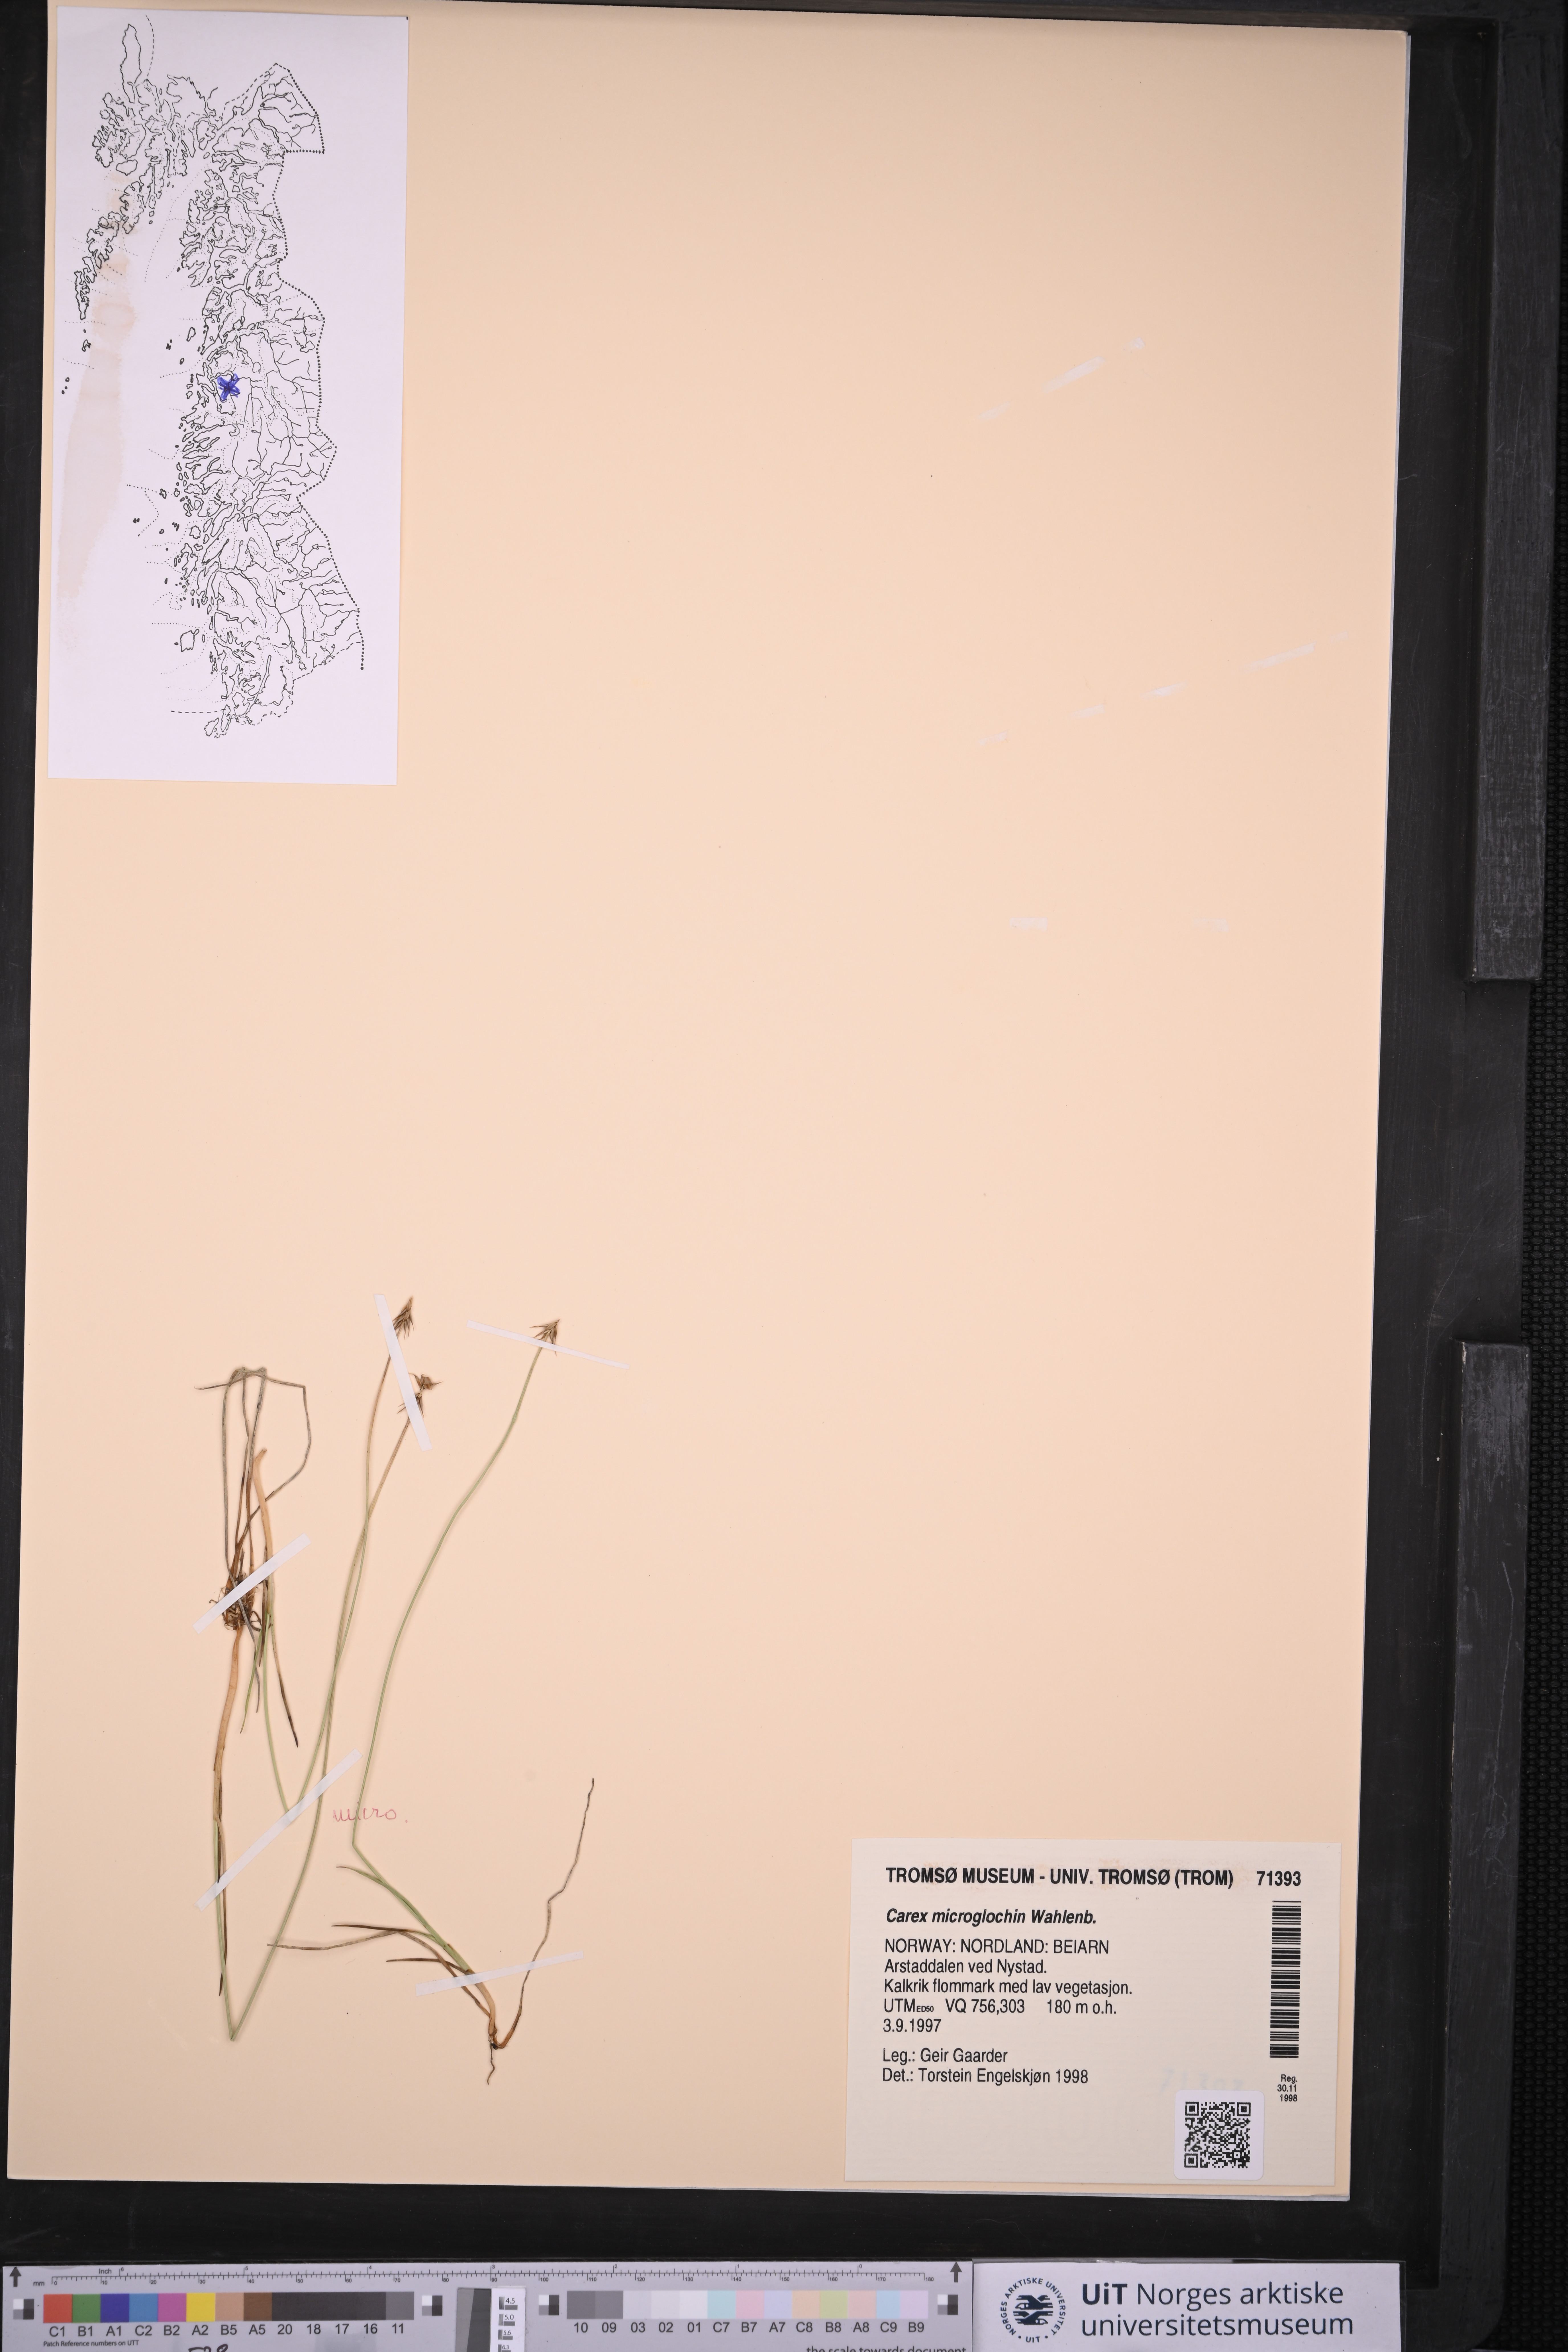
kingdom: Plantae
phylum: Tracheophyta
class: Liliopsida
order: Poales
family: Cyperaceae
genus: Carex
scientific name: Carex microglochin
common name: Bristle sedge
